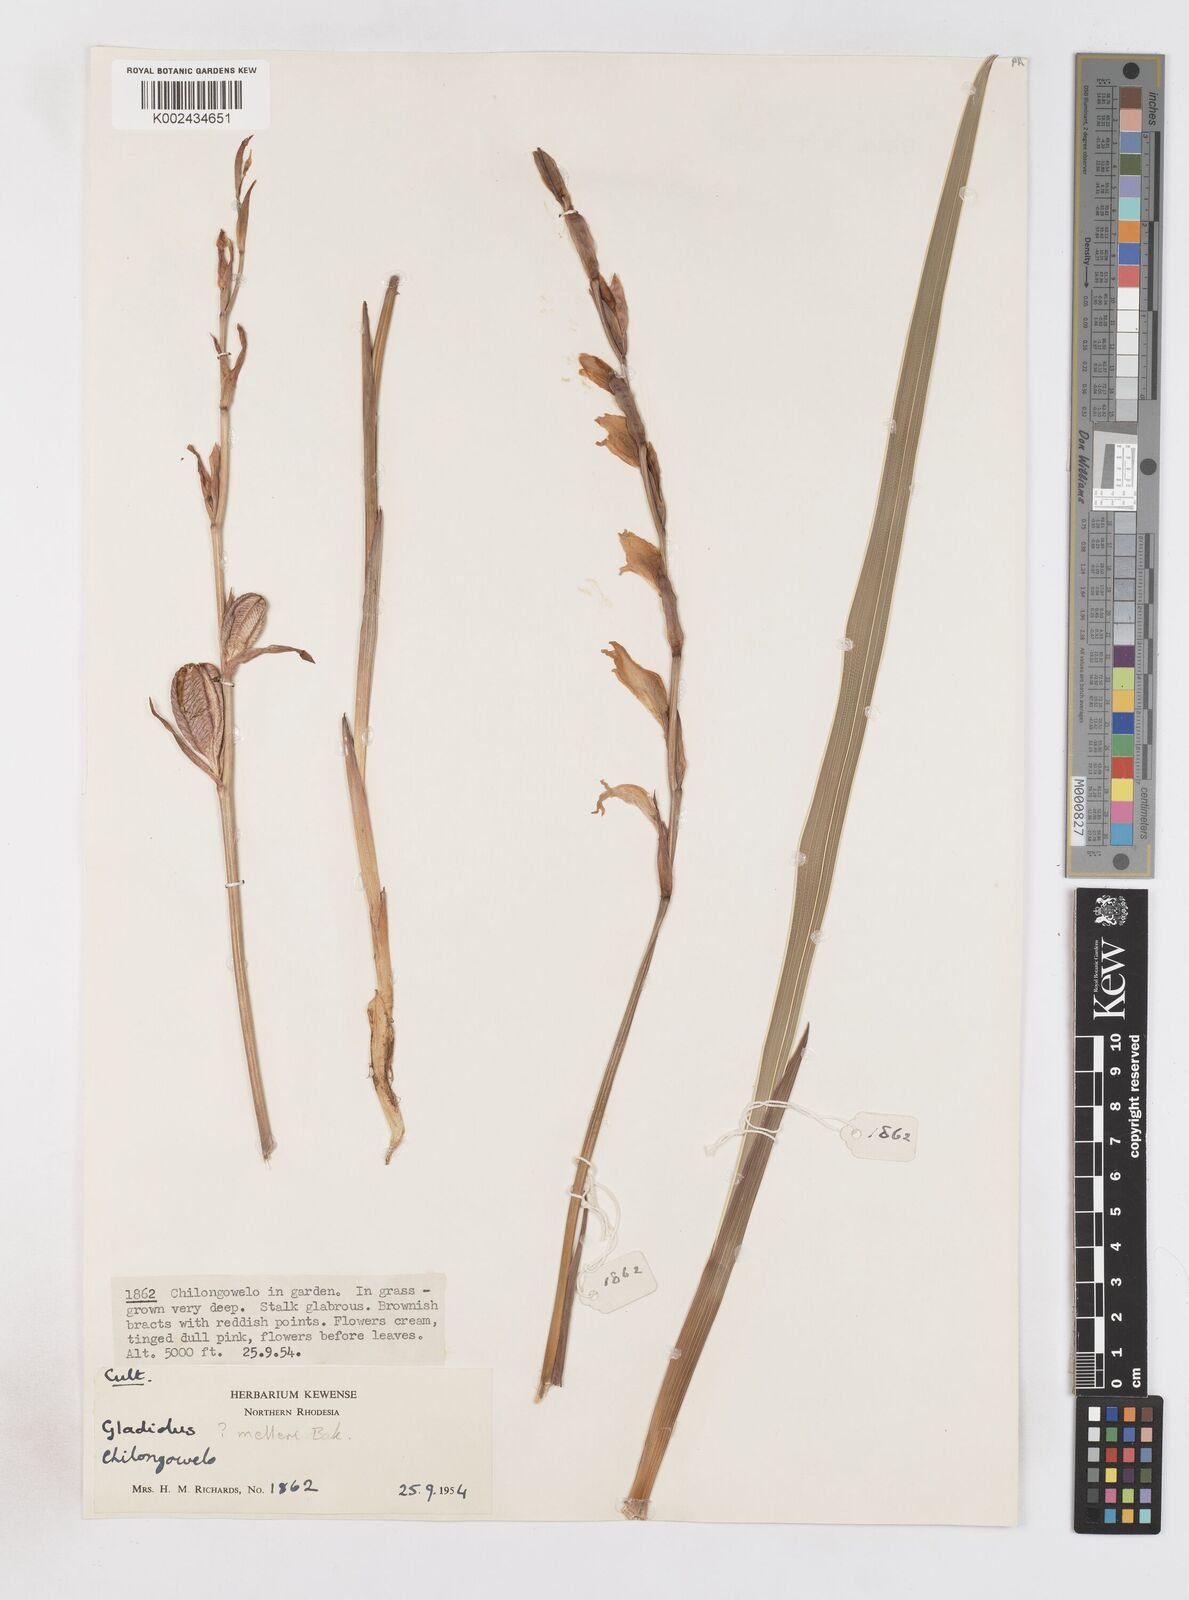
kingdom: Plantae
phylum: Tracheophyta
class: Liliopsida
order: Asparagales
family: Iridaceae
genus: Gladiolus
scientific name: Gladiolus melleri
